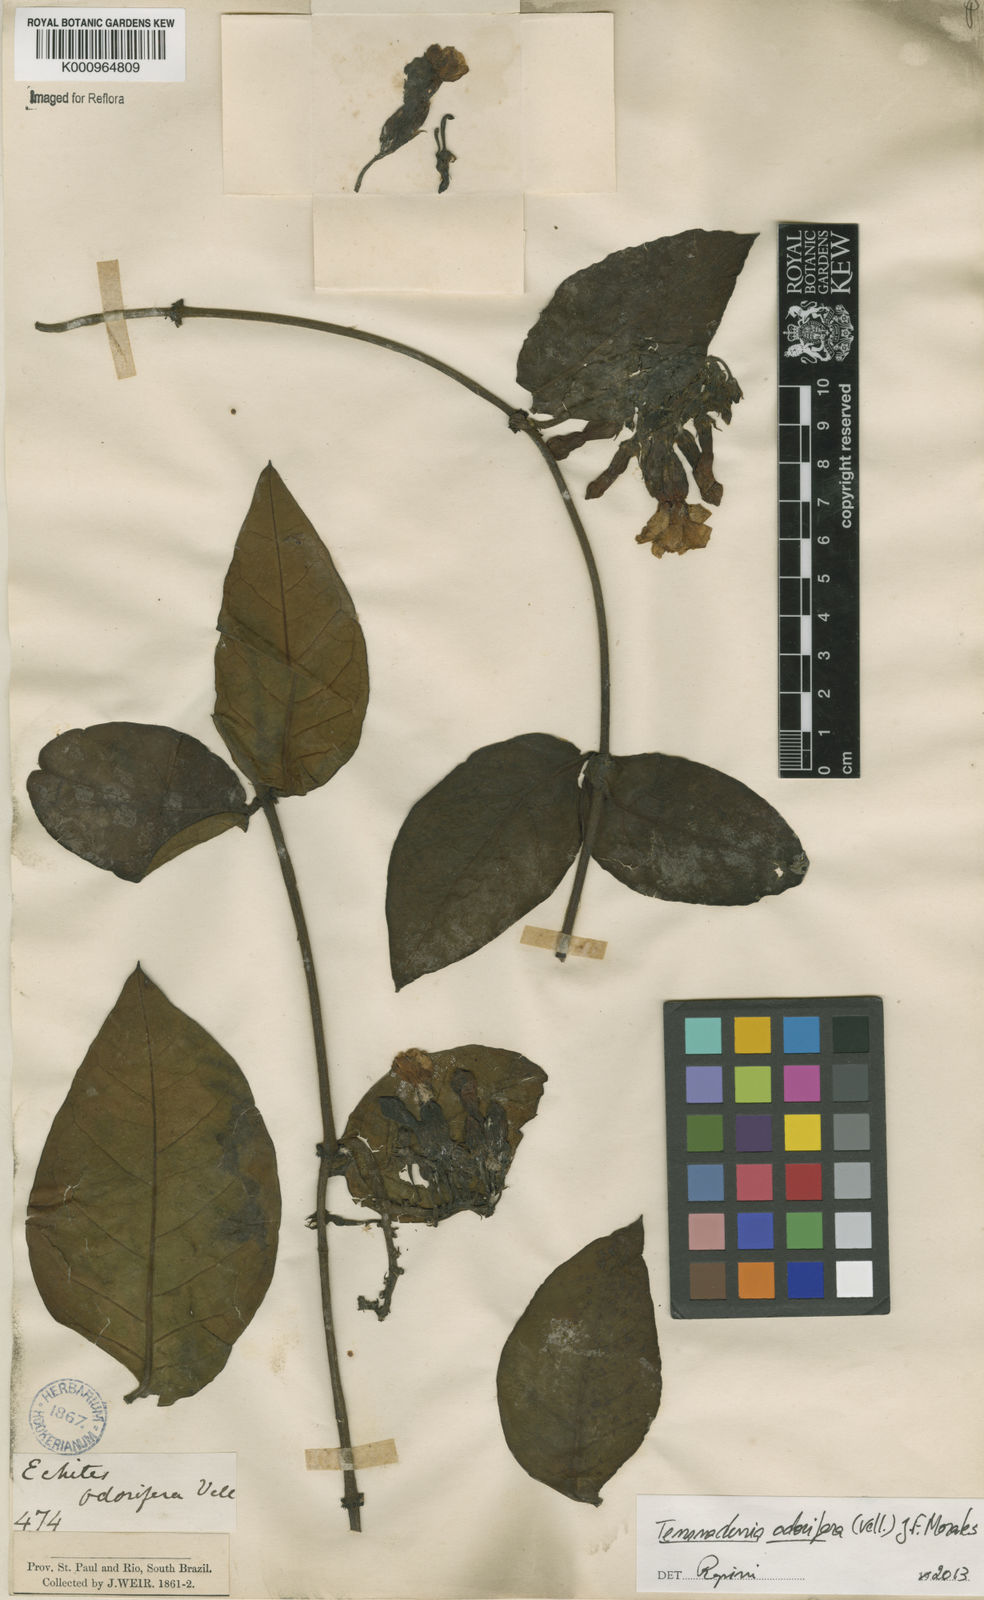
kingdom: Plantae
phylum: Tracheophyta
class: Magnoliopsida
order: Gentianales
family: Apocynaceae
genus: Temnadenia
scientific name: Temnadenia odorifera
